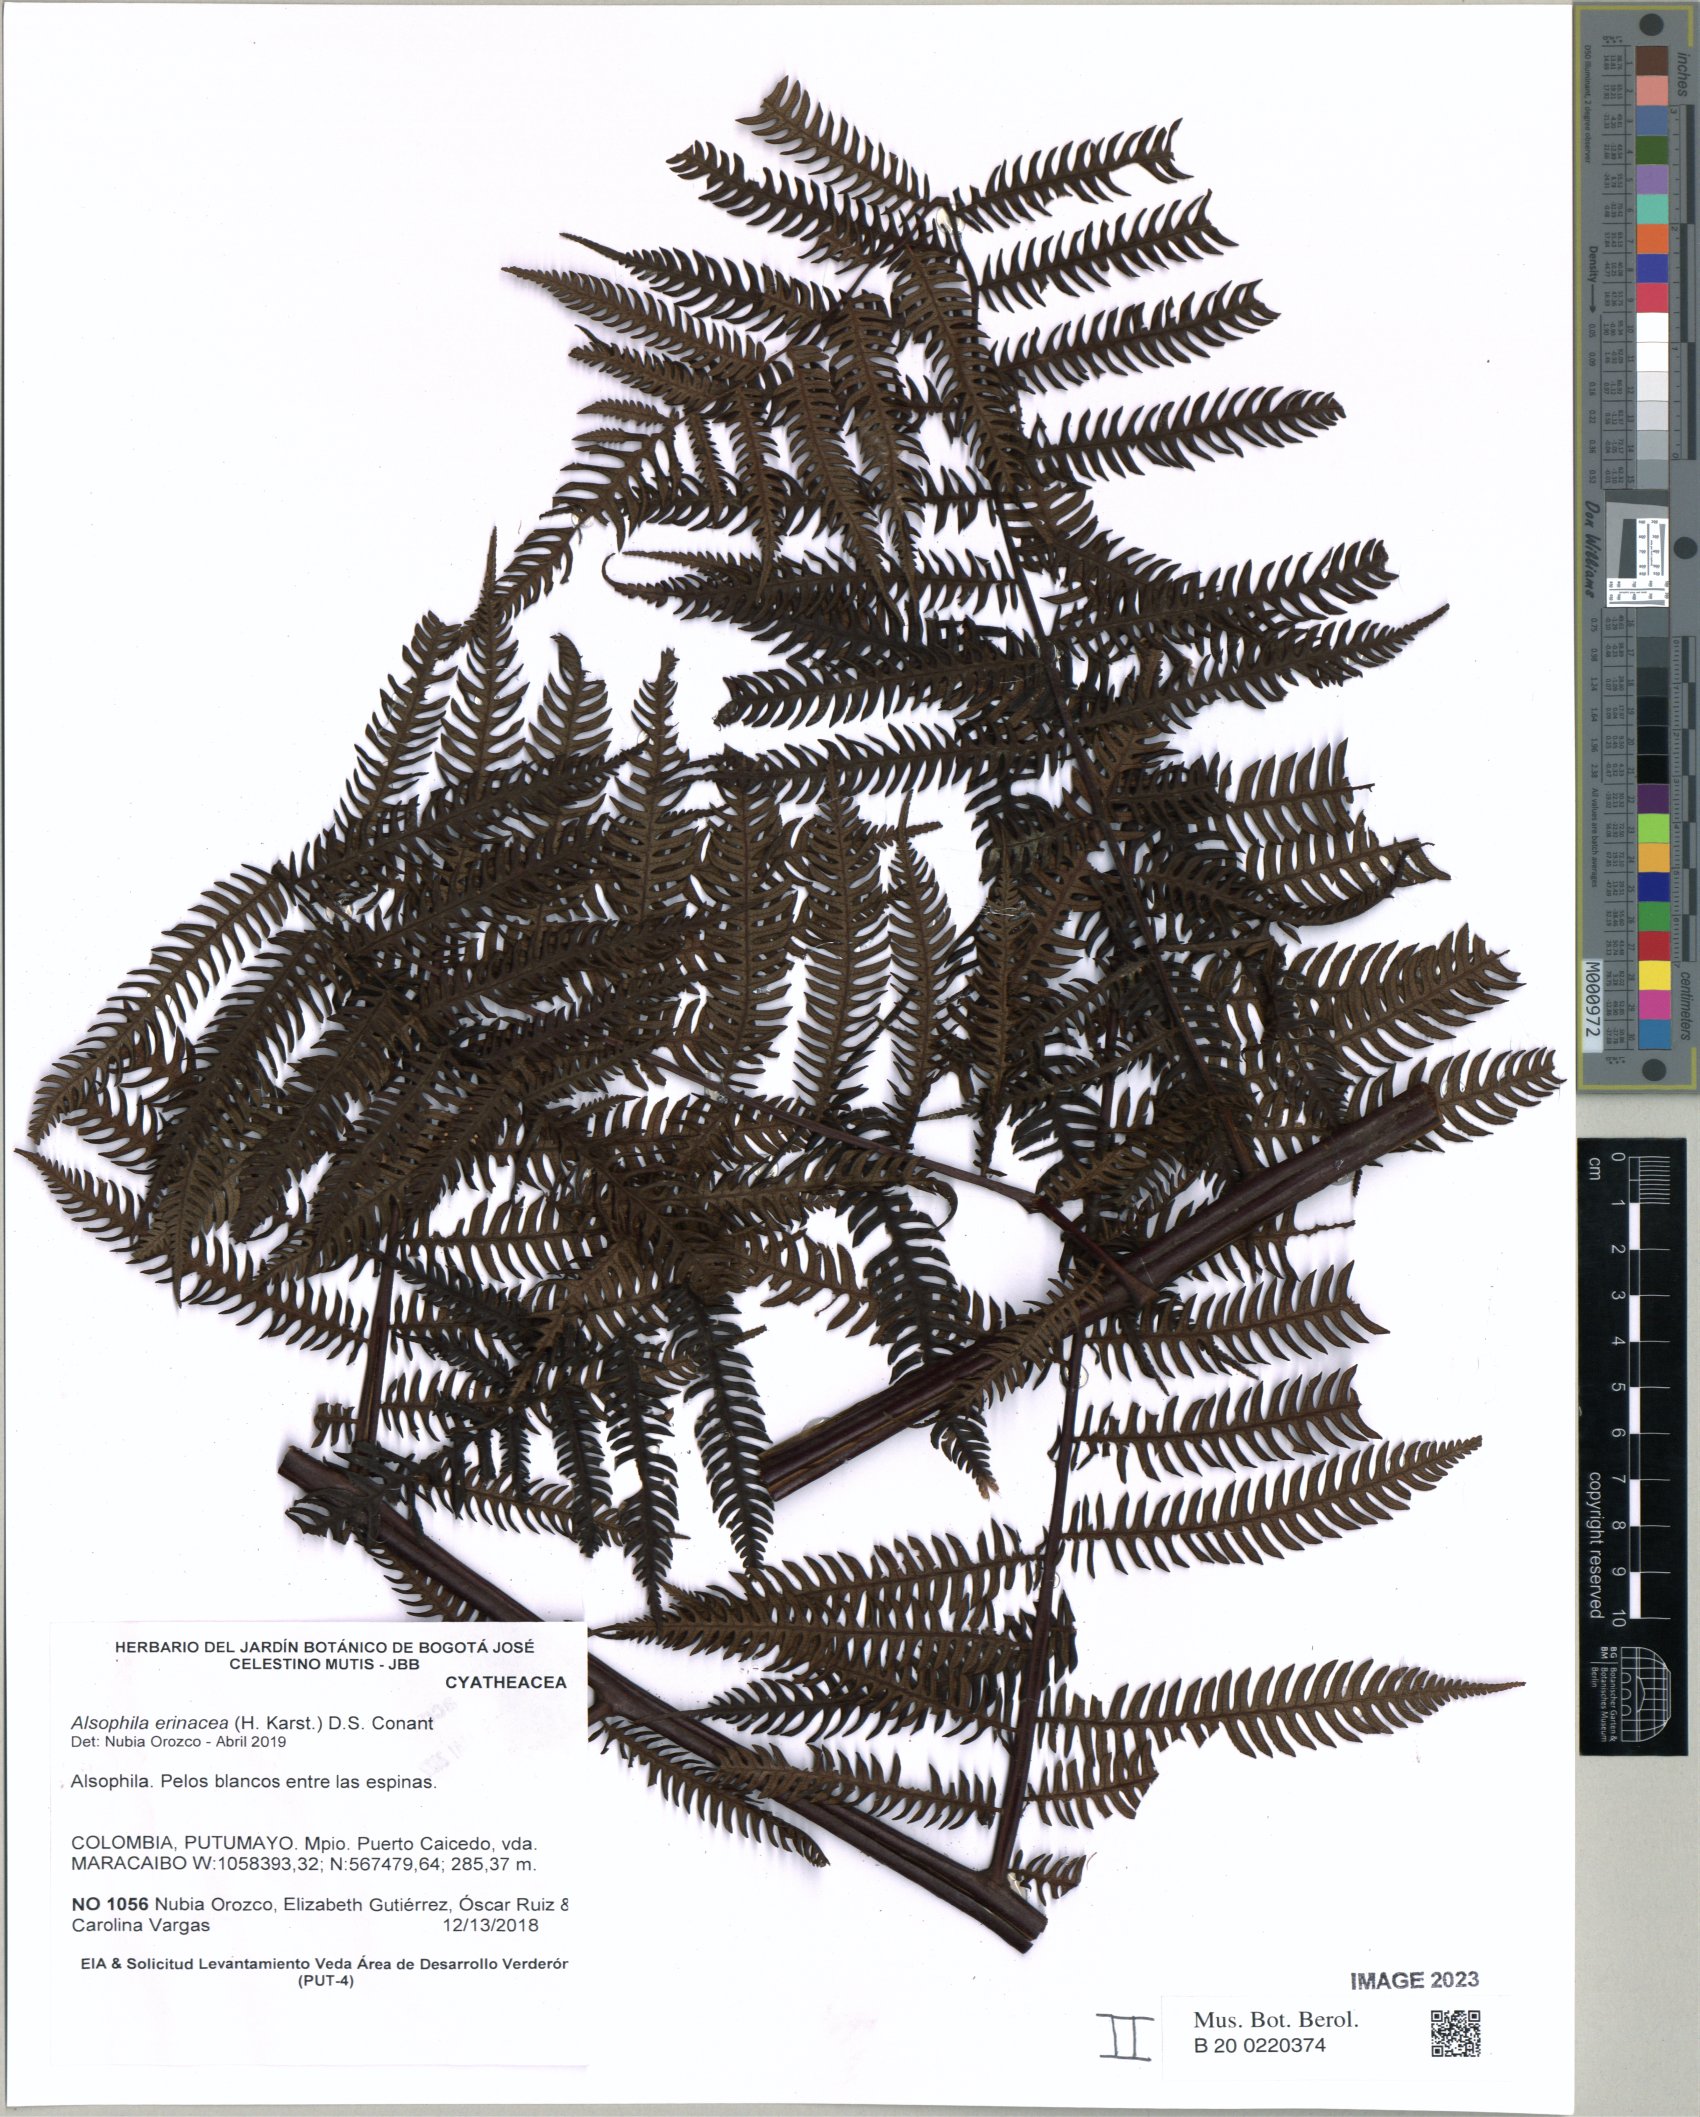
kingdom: Plantae
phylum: Tracheophyta
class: Polypodiopsida
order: Cyatheales
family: Cyatheaceae
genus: Alsophila
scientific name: Alsophila erinacea
